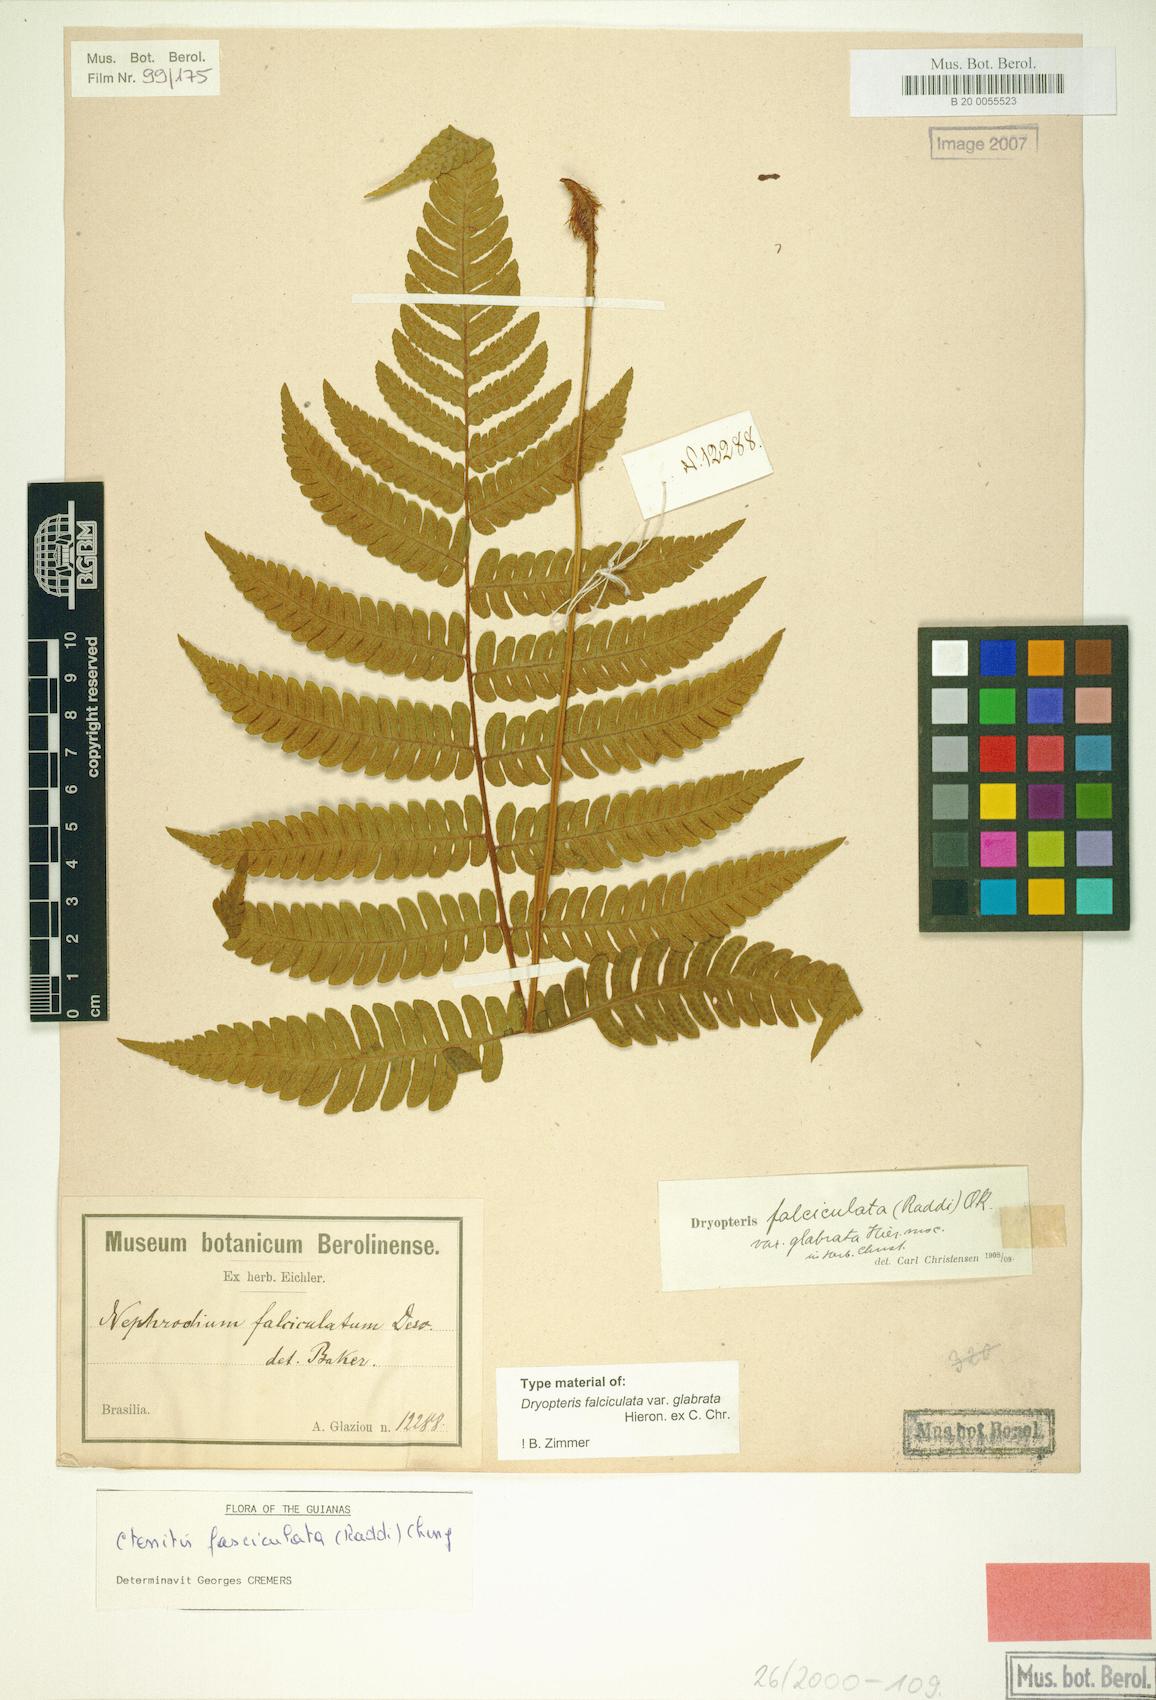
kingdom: Plantae
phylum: Tracheophyta
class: Polypodiopsida
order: Polypodiales
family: Dryopteridaceae
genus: Ctenitis
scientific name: Ctenitis paranaensis
